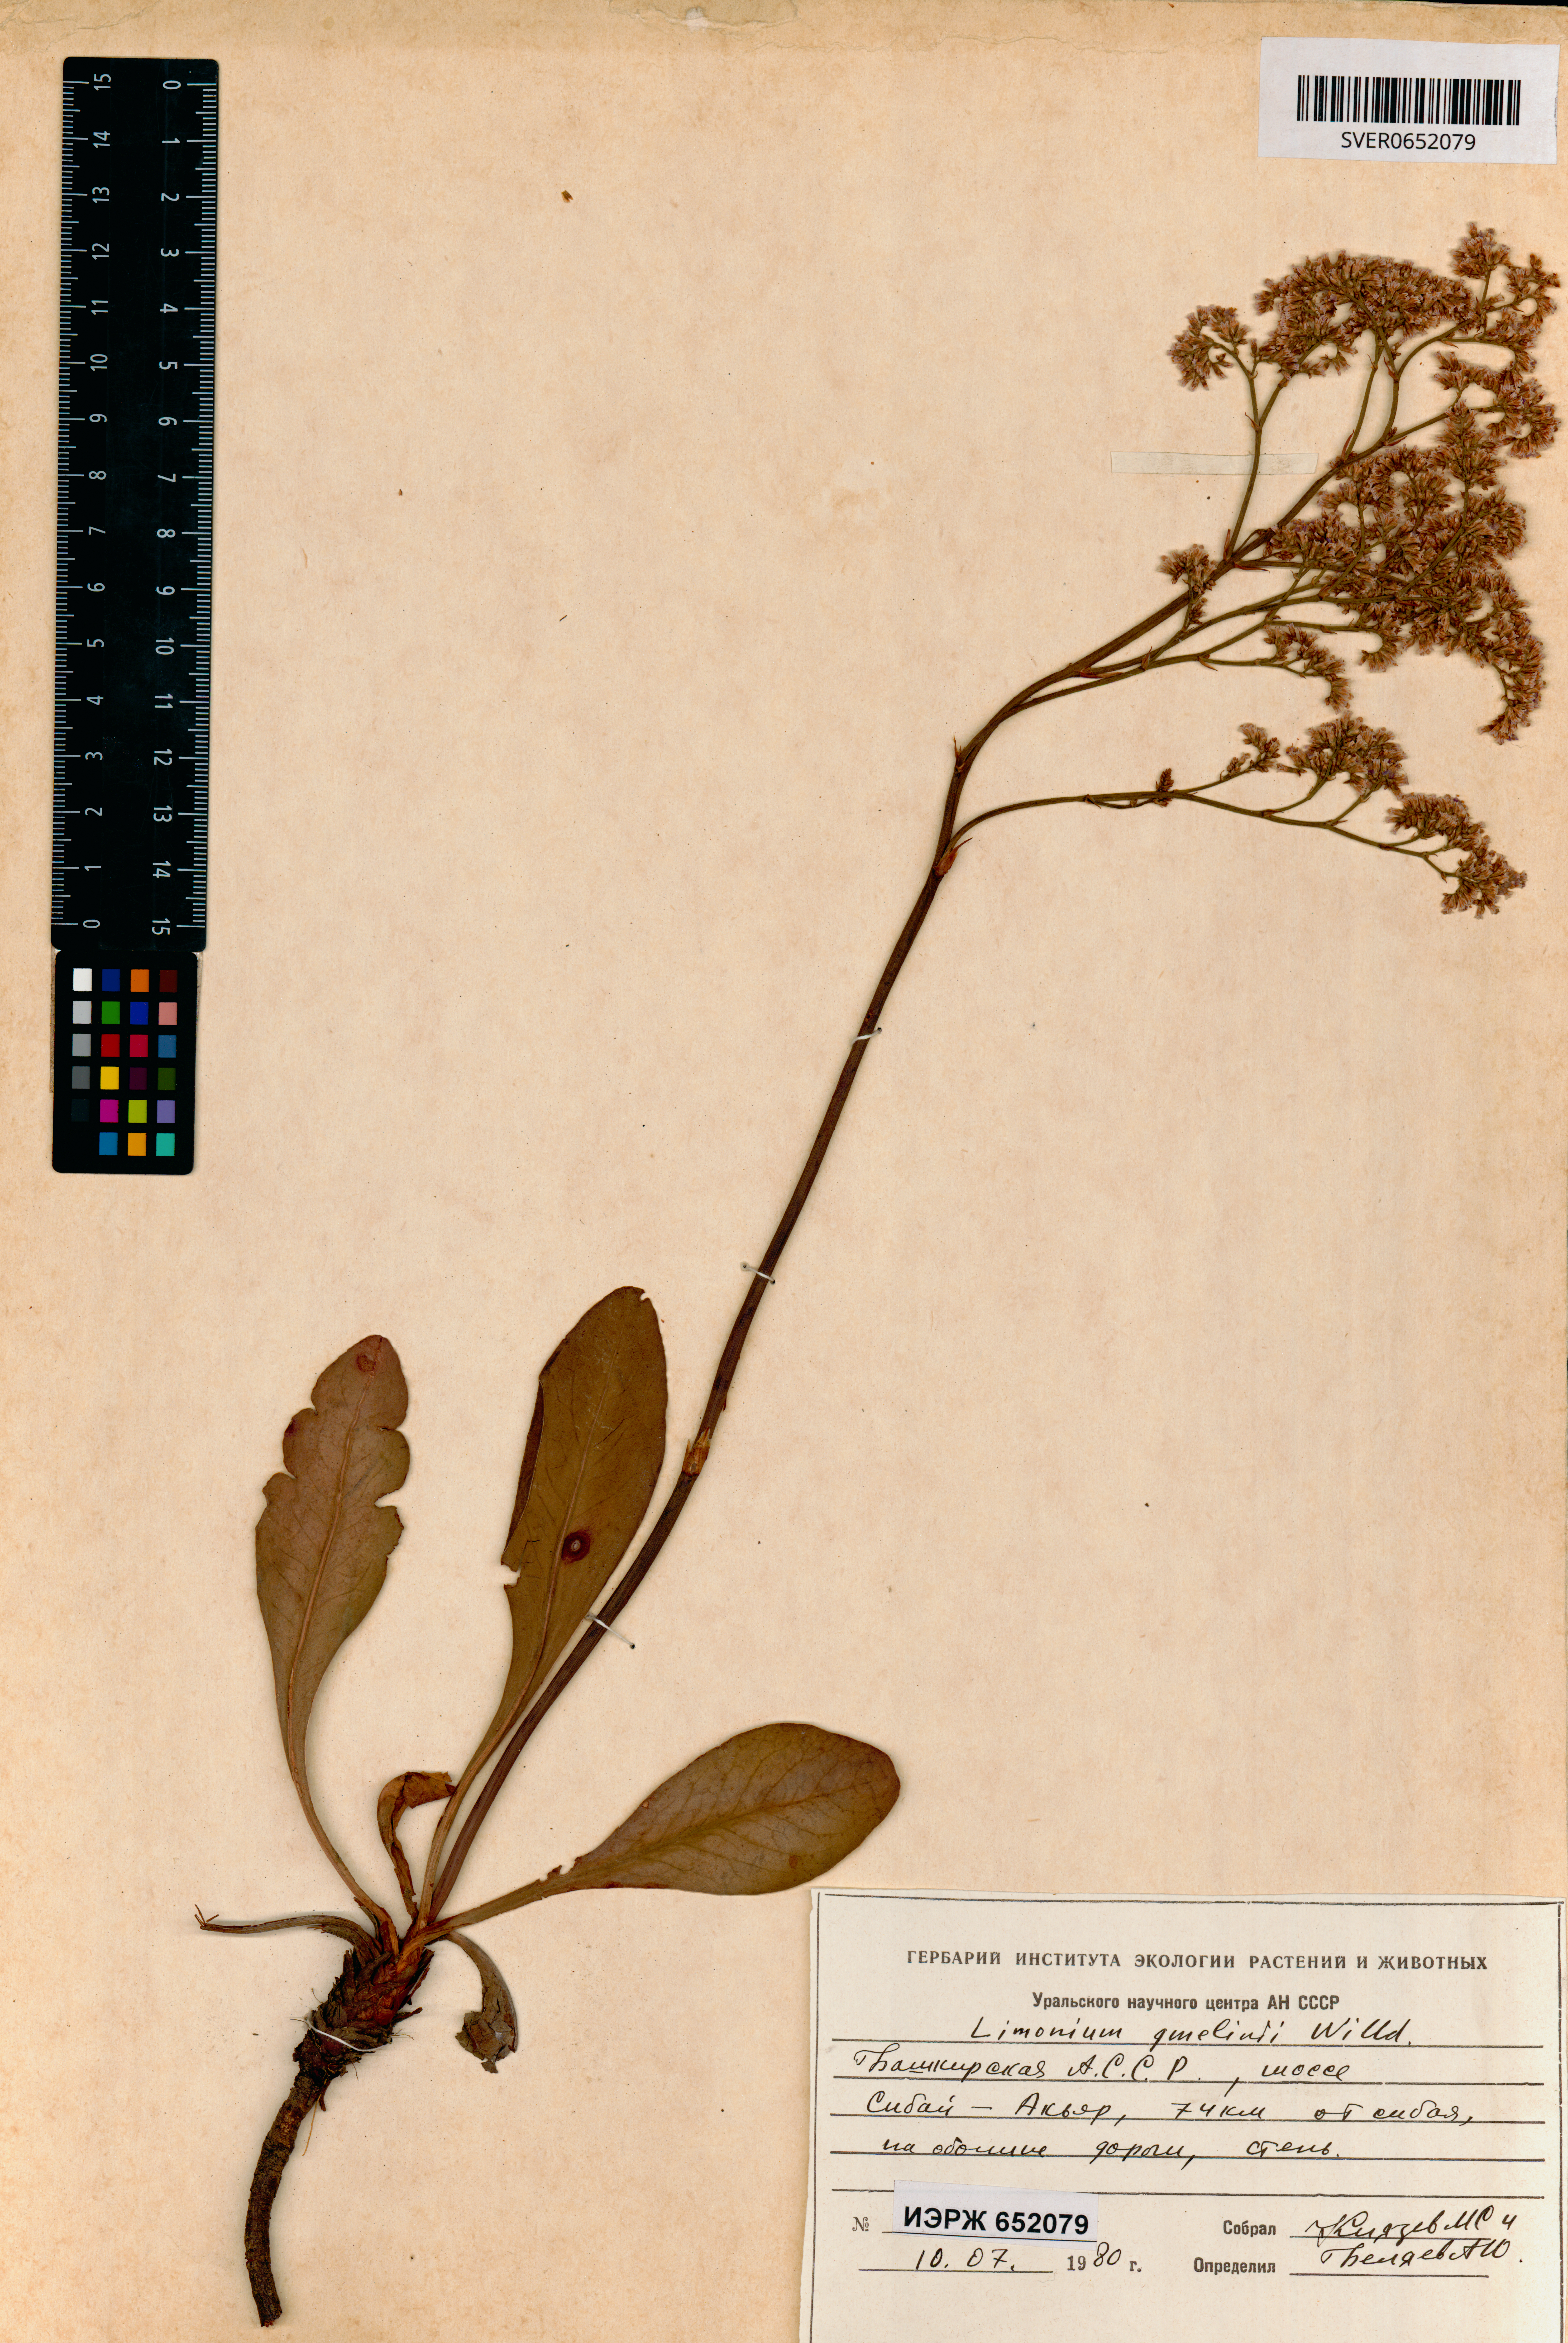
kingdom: Plantae
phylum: Tracheophyta
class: Magnoliopsida
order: Caryophyllales
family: Plumbaginaceae
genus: Limonium
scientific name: Limonium gmelini
